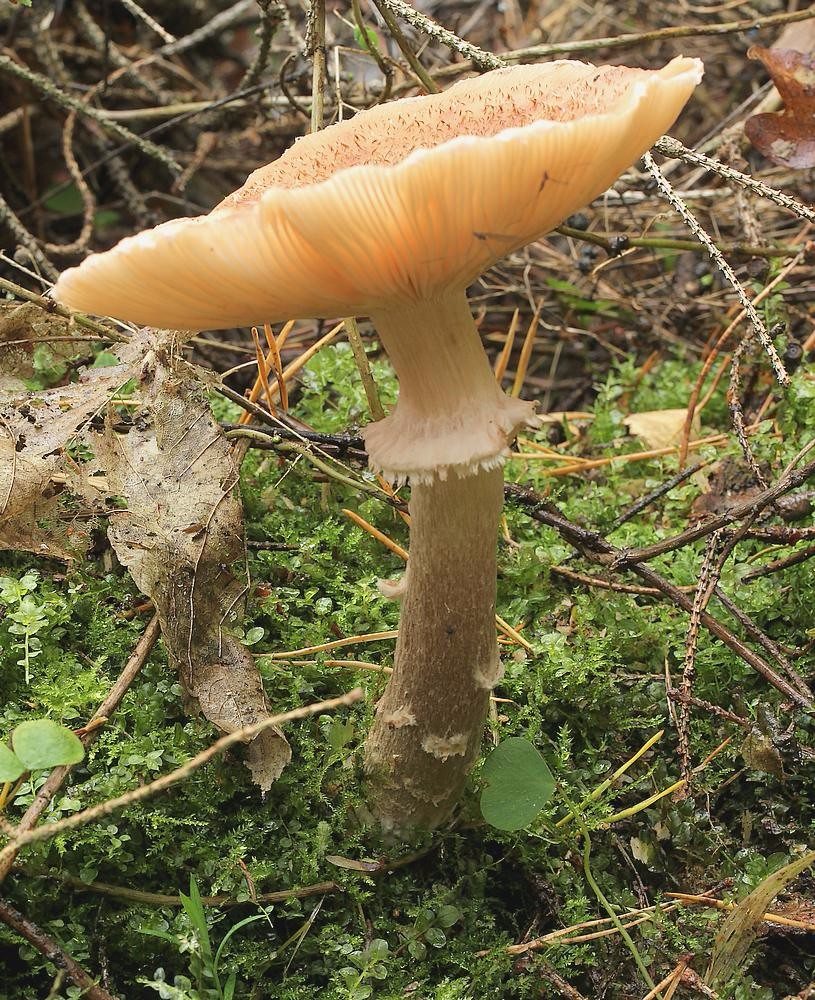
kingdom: Fungi
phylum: Basidiomycota
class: Agaricomycetes
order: Agaricales
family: Physalacriaceae
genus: Armillaria
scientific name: Armillaria ostoyae
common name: mørk honningsvamp
